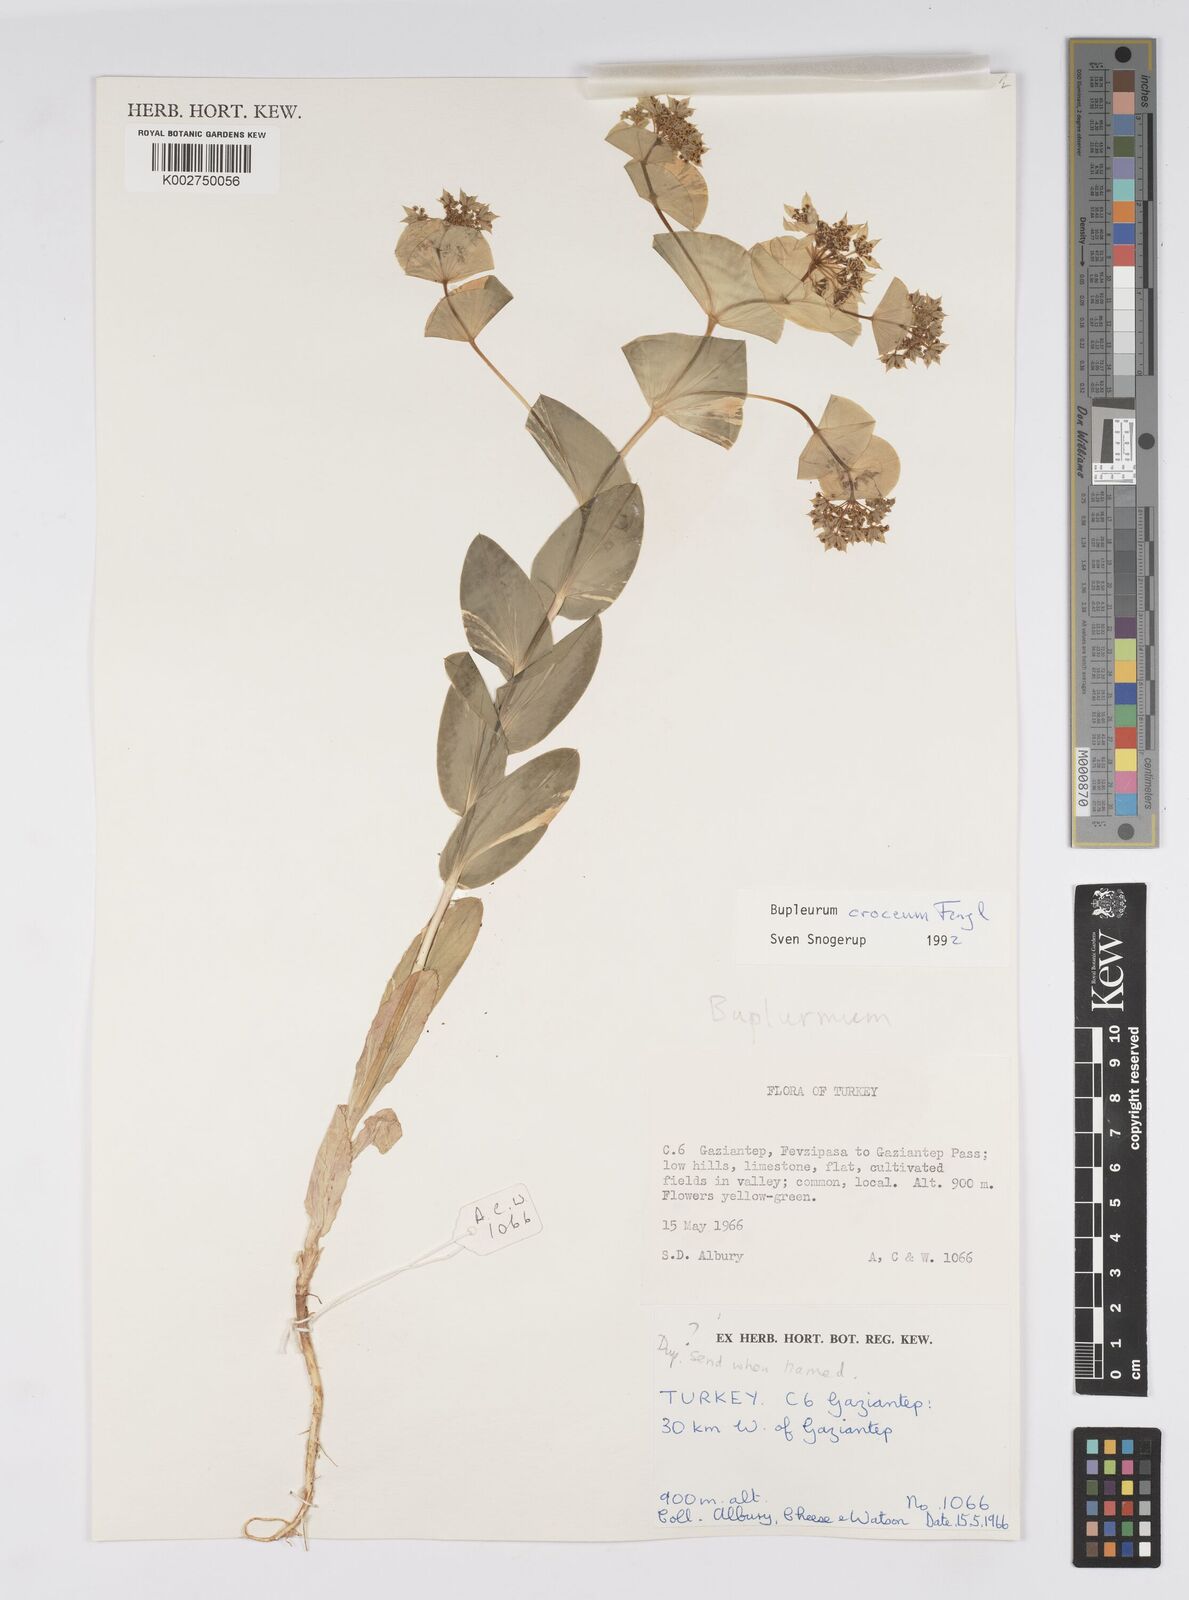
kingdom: Plantae
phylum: Tracheophyta
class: Magnoliopsida
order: Apiales
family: Apiaceae
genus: Bupleurum
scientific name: Bupleurum
